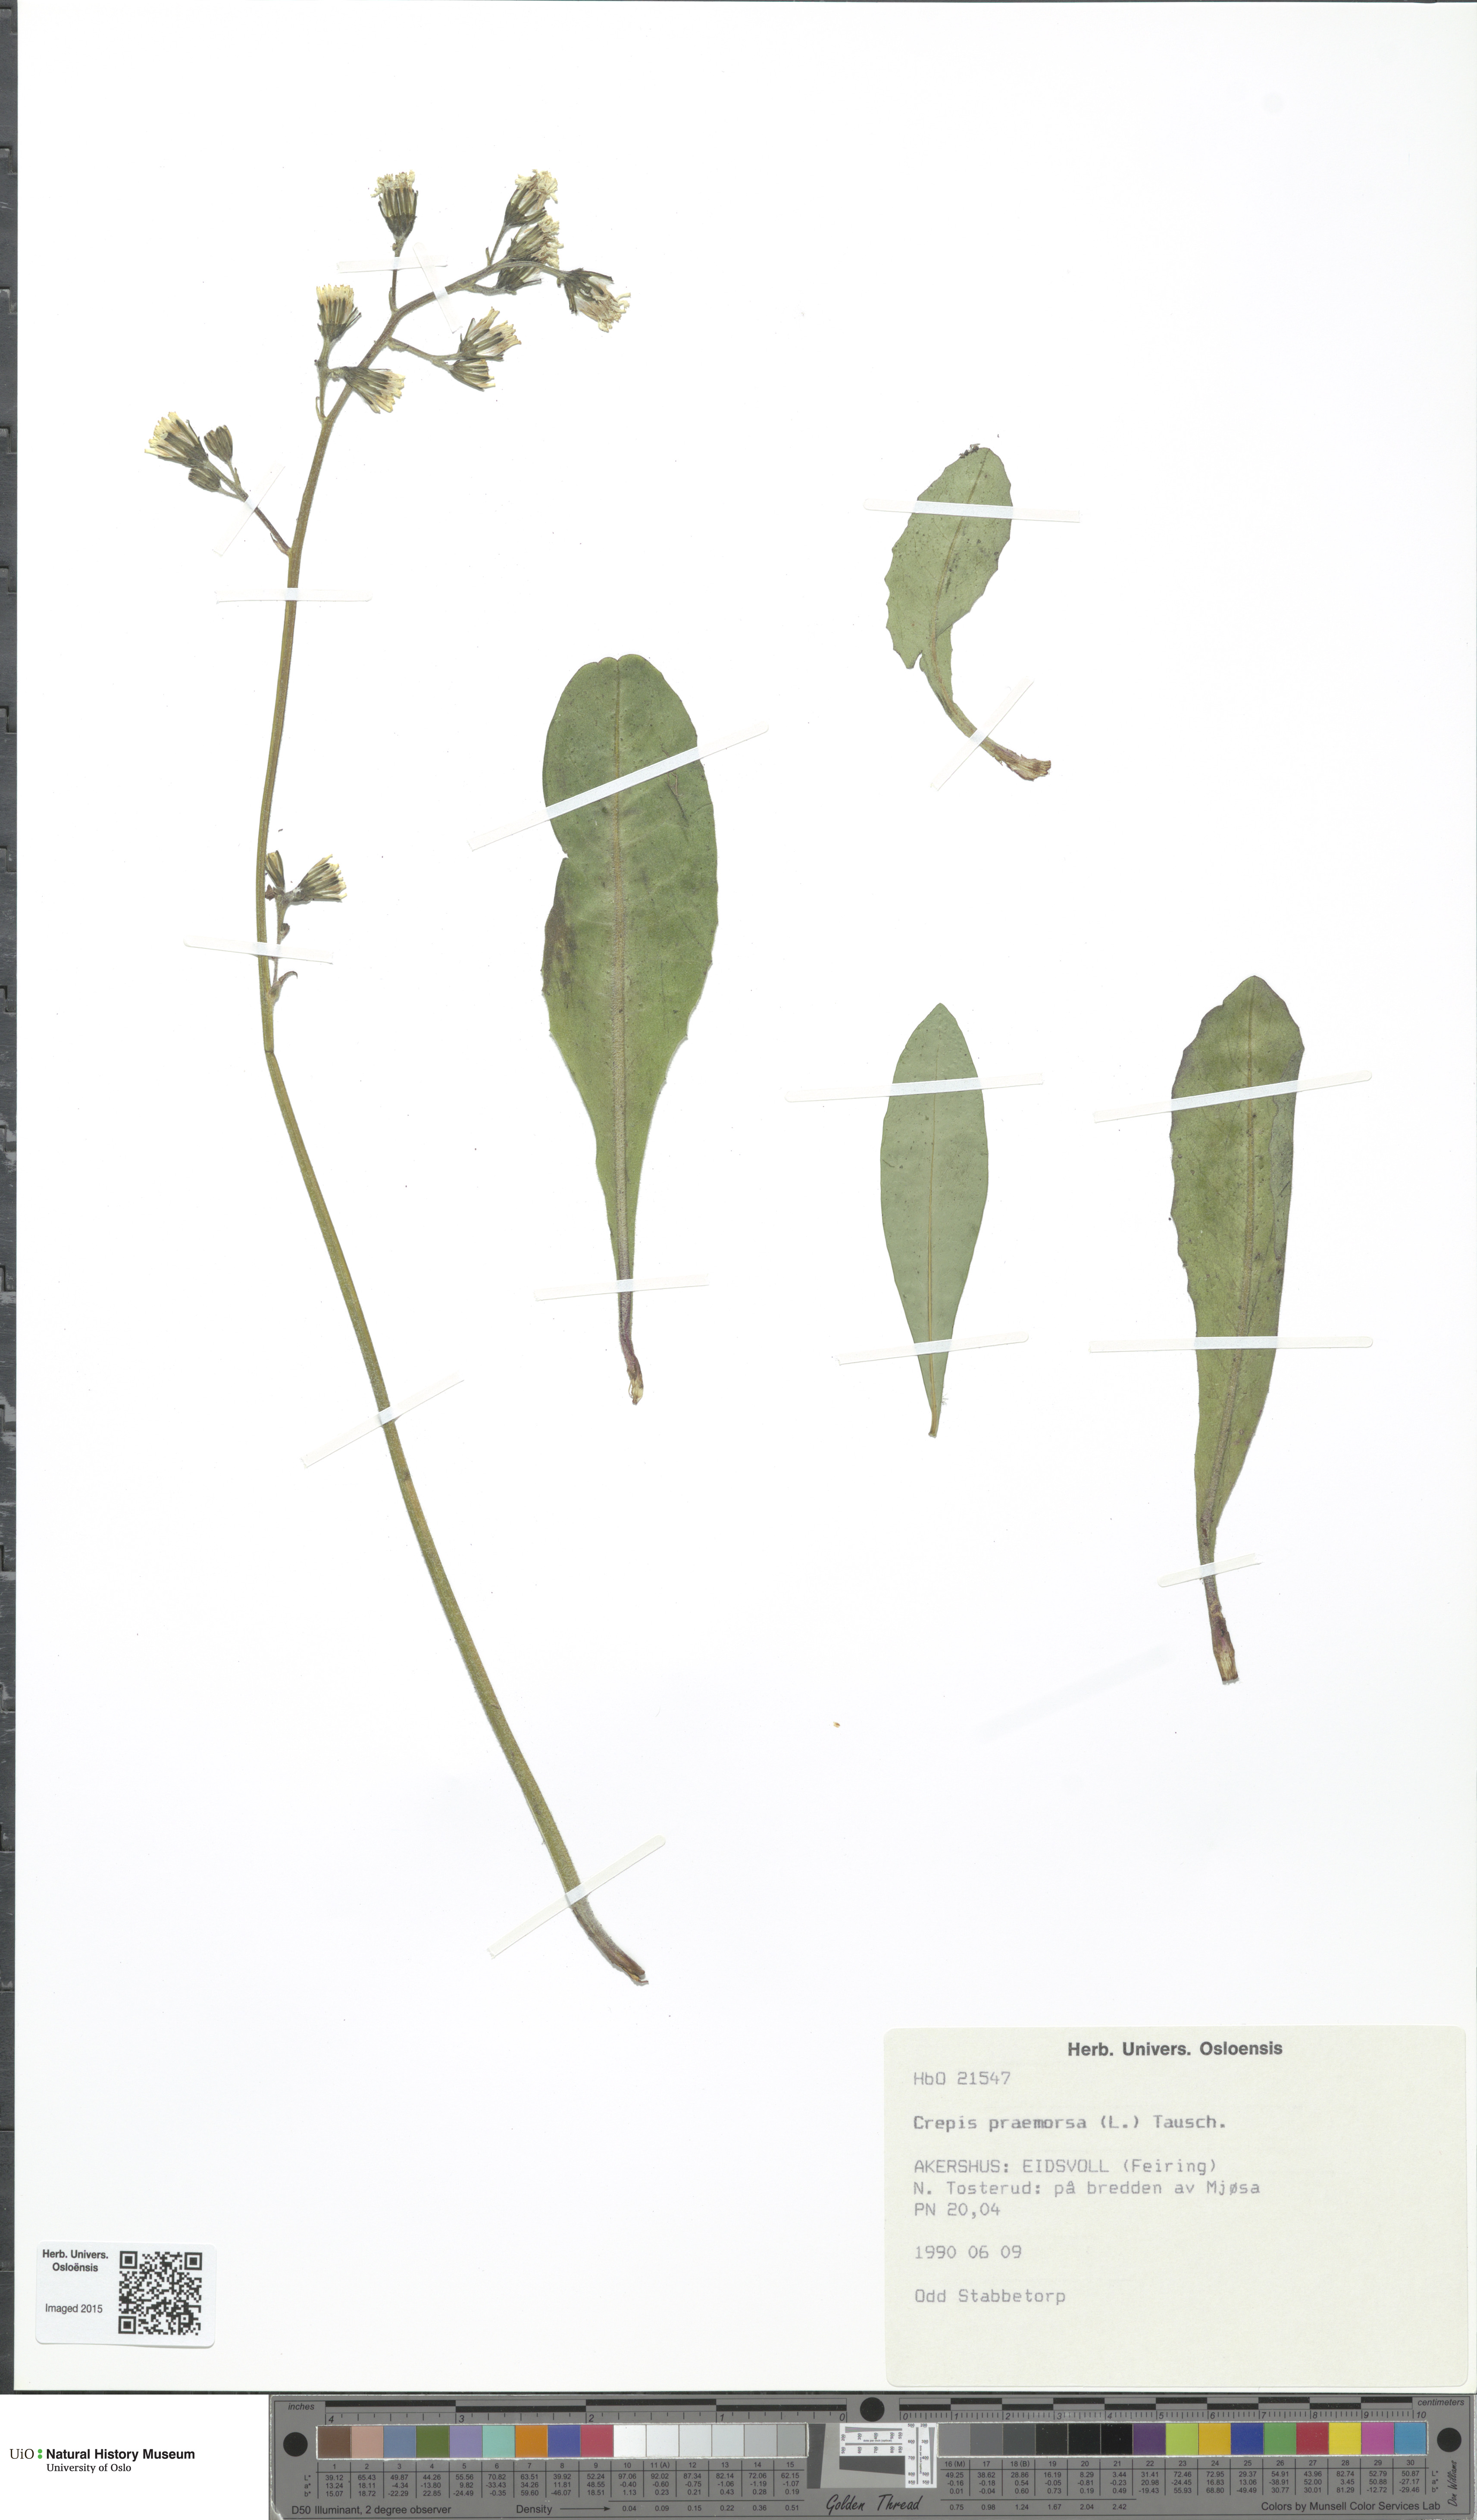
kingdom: Plantae
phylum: Tracheophyta
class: Magnoliopsida
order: Asterales
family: Asteraceae
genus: Crepis
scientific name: Crepis praemorsa
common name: Leafless hawk's-beard
